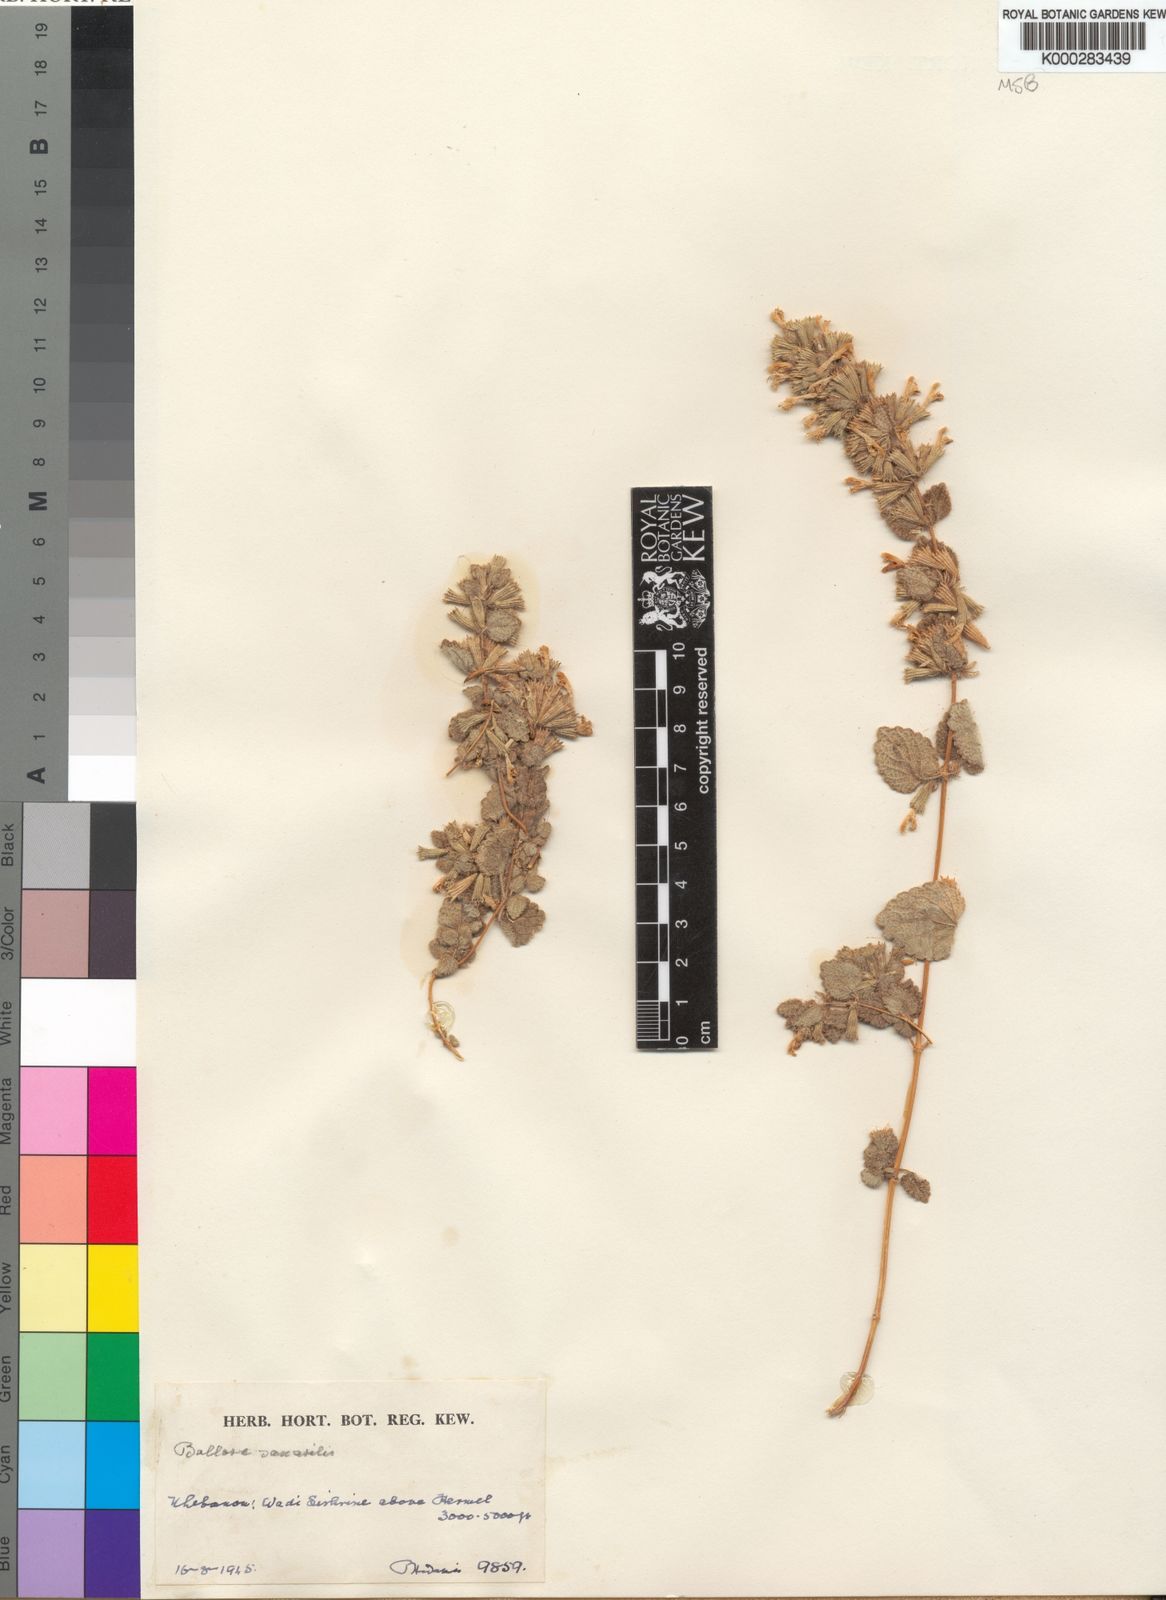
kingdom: Plantae
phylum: Tracheophyta
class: Magnoliopsida
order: Lamiales
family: Lamiaceae
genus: Ballota
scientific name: Ballota saxatilis
